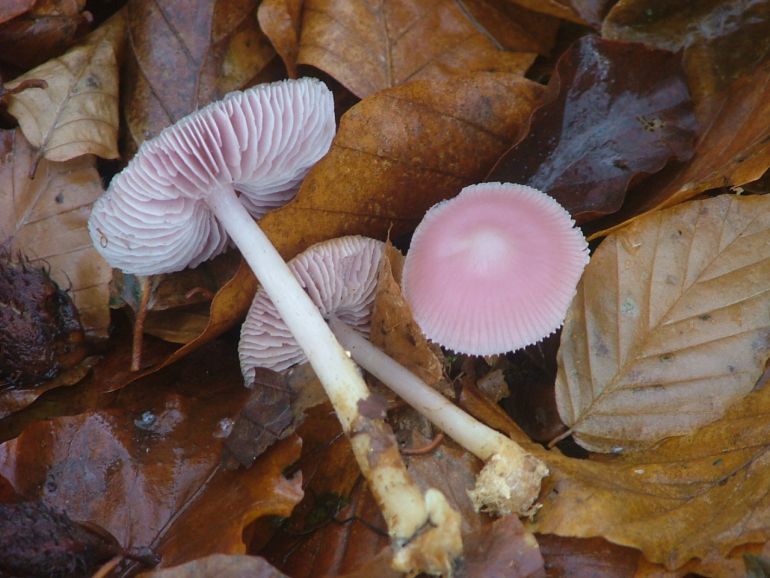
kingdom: Fungi
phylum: Basidiomycota
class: Agaricomycetes
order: Agaricales
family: Mycenaceae
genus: Mycena
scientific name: Mycena rosea
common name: rosa huesvamp
